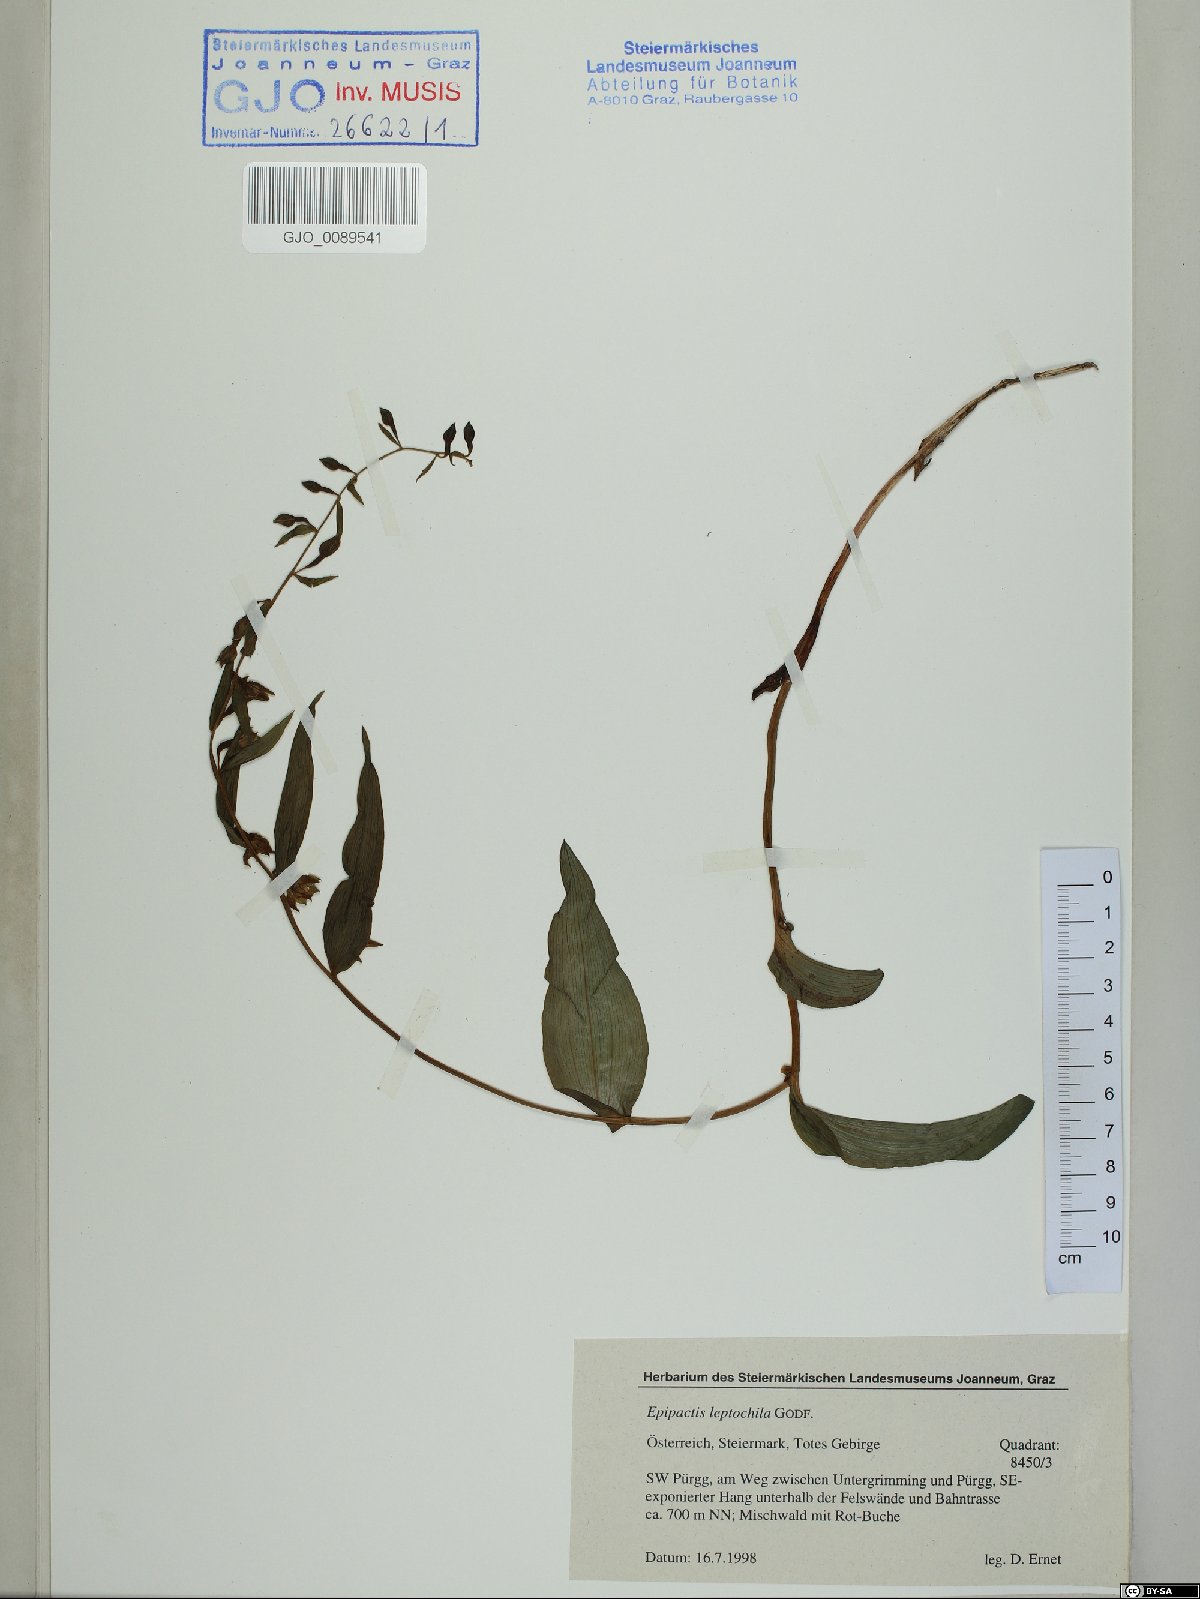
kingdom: Plantae
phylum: Tracheophyta
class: Liliopsida
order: Asparagales
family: Orchidaceae
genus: Epipactis
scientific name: Epipactis leptochila
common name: Narrow-lipped helleborine
